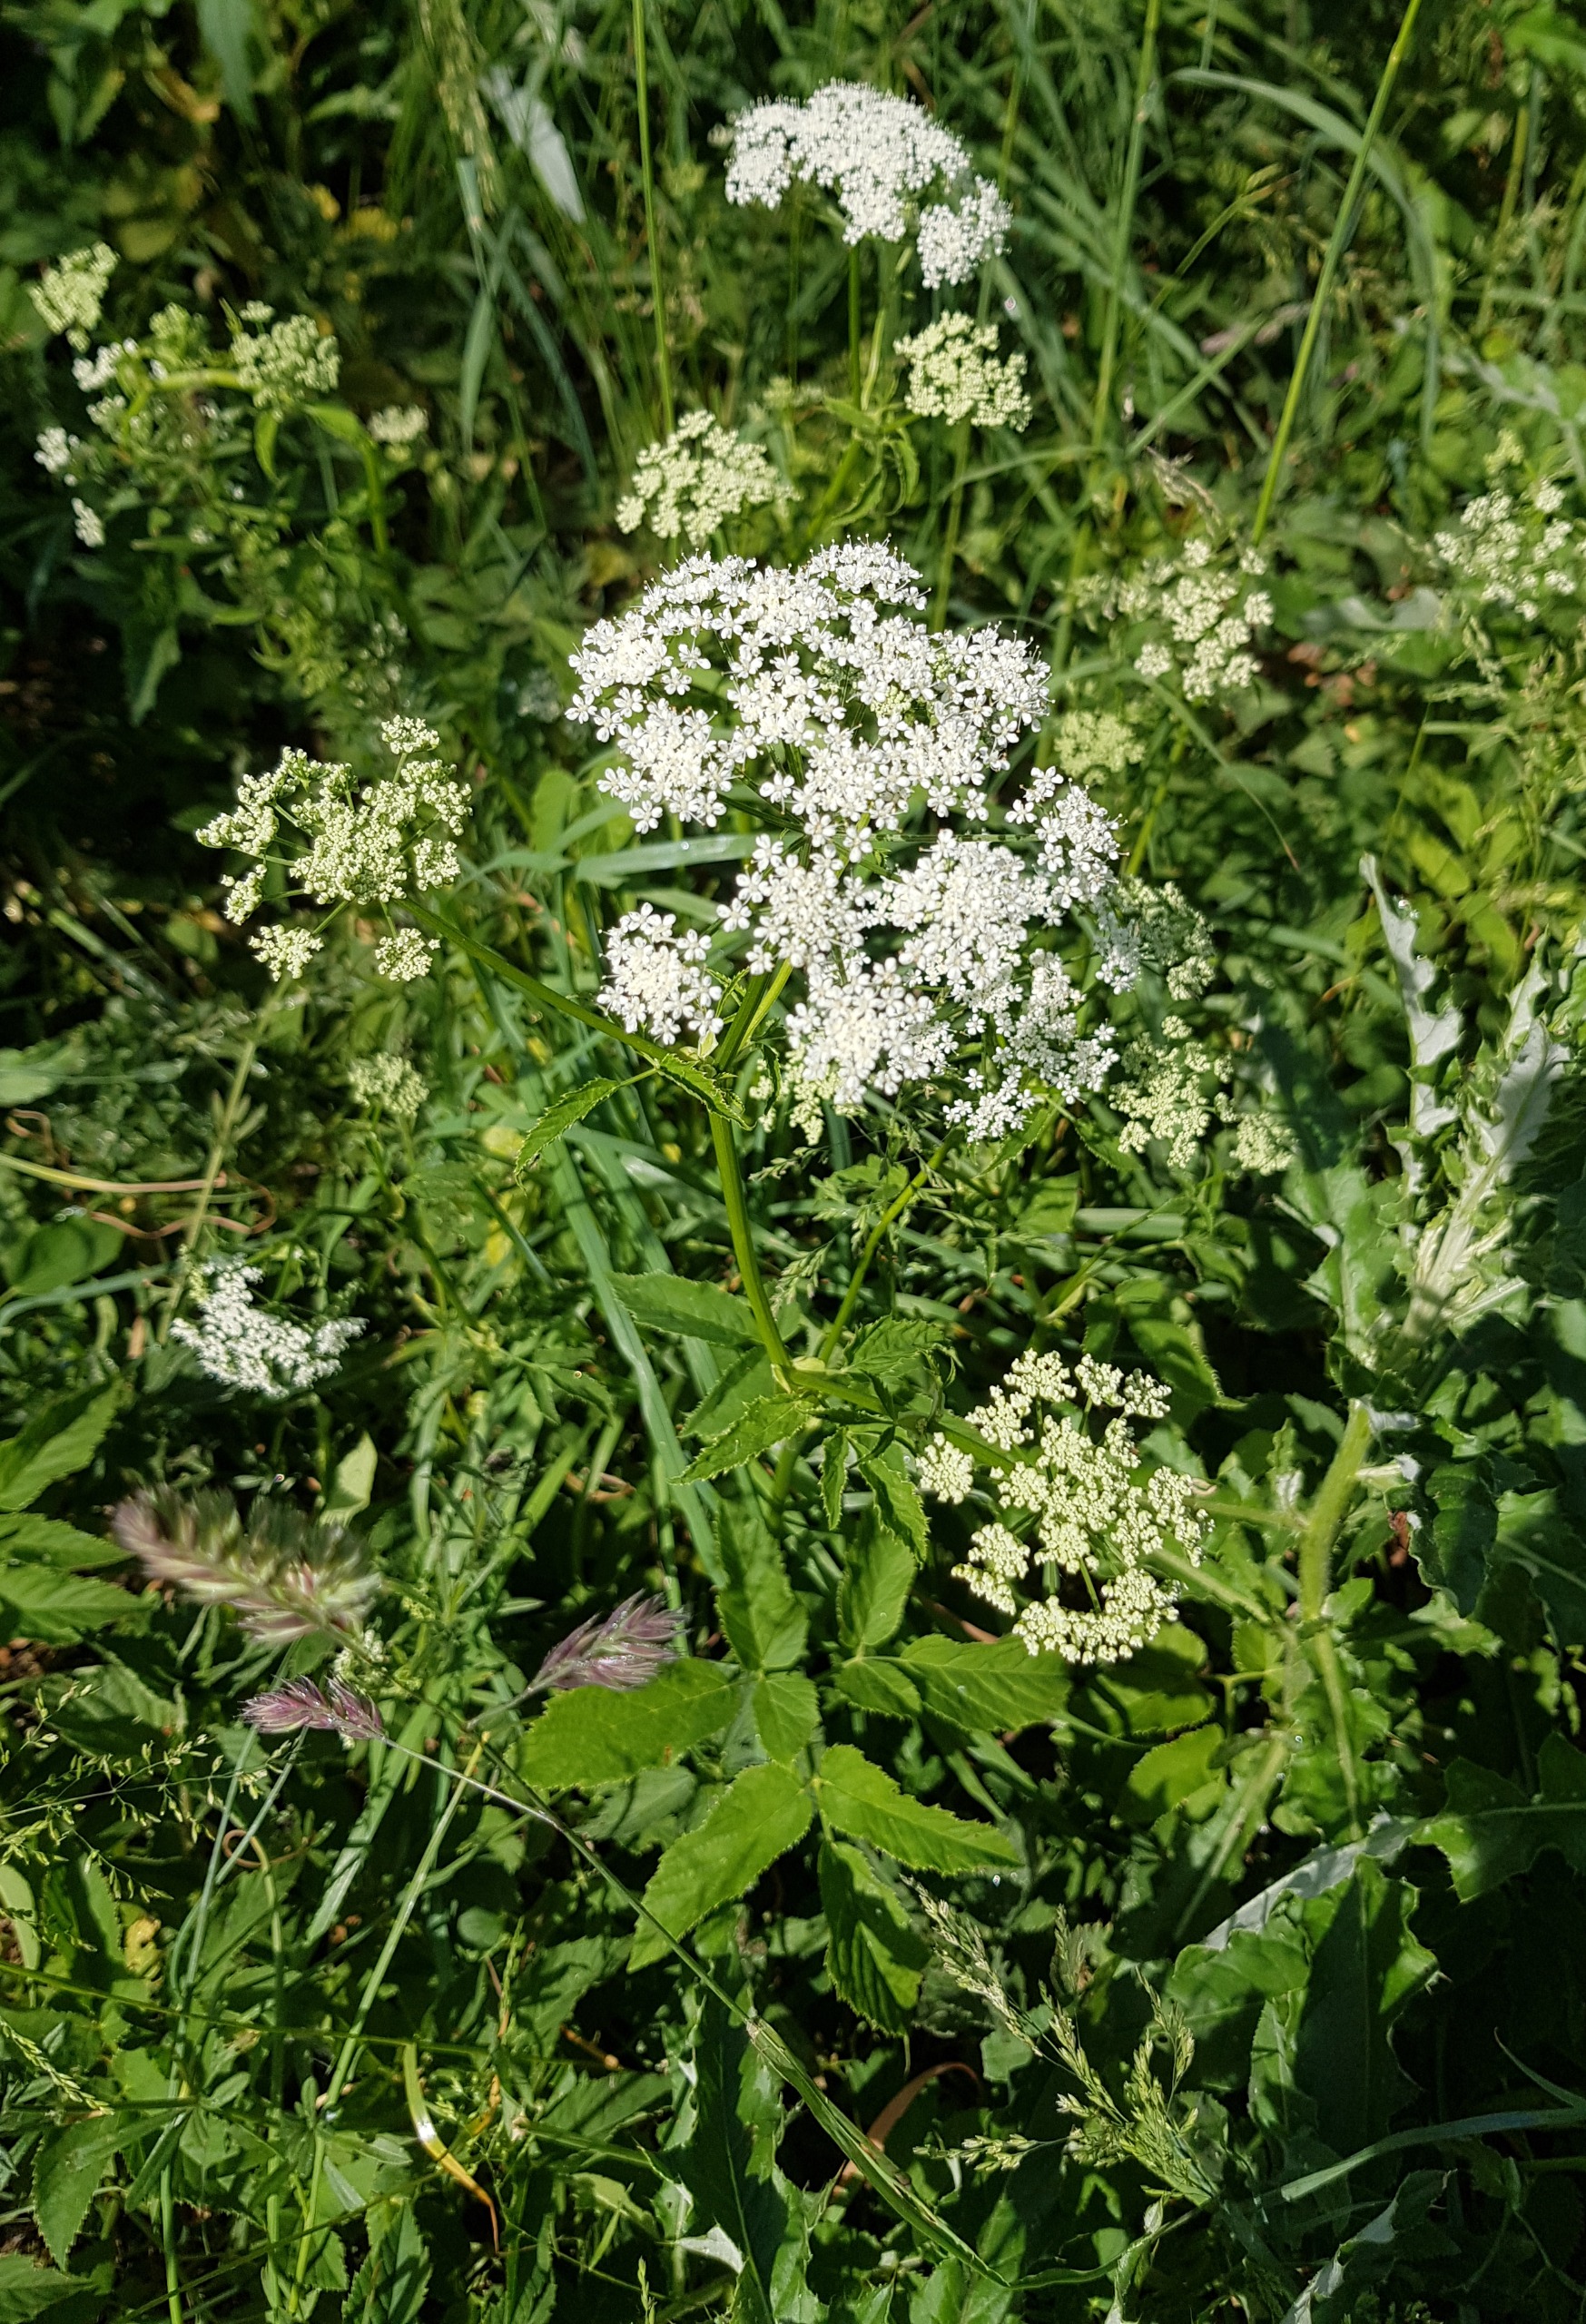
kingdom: Plantae
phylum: Tracheophyta
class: Magnoliopsida
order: Apiales
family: Apiaceae
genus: Aegopodium
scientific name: Aegopodium podagraria
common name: Skvalderkål
